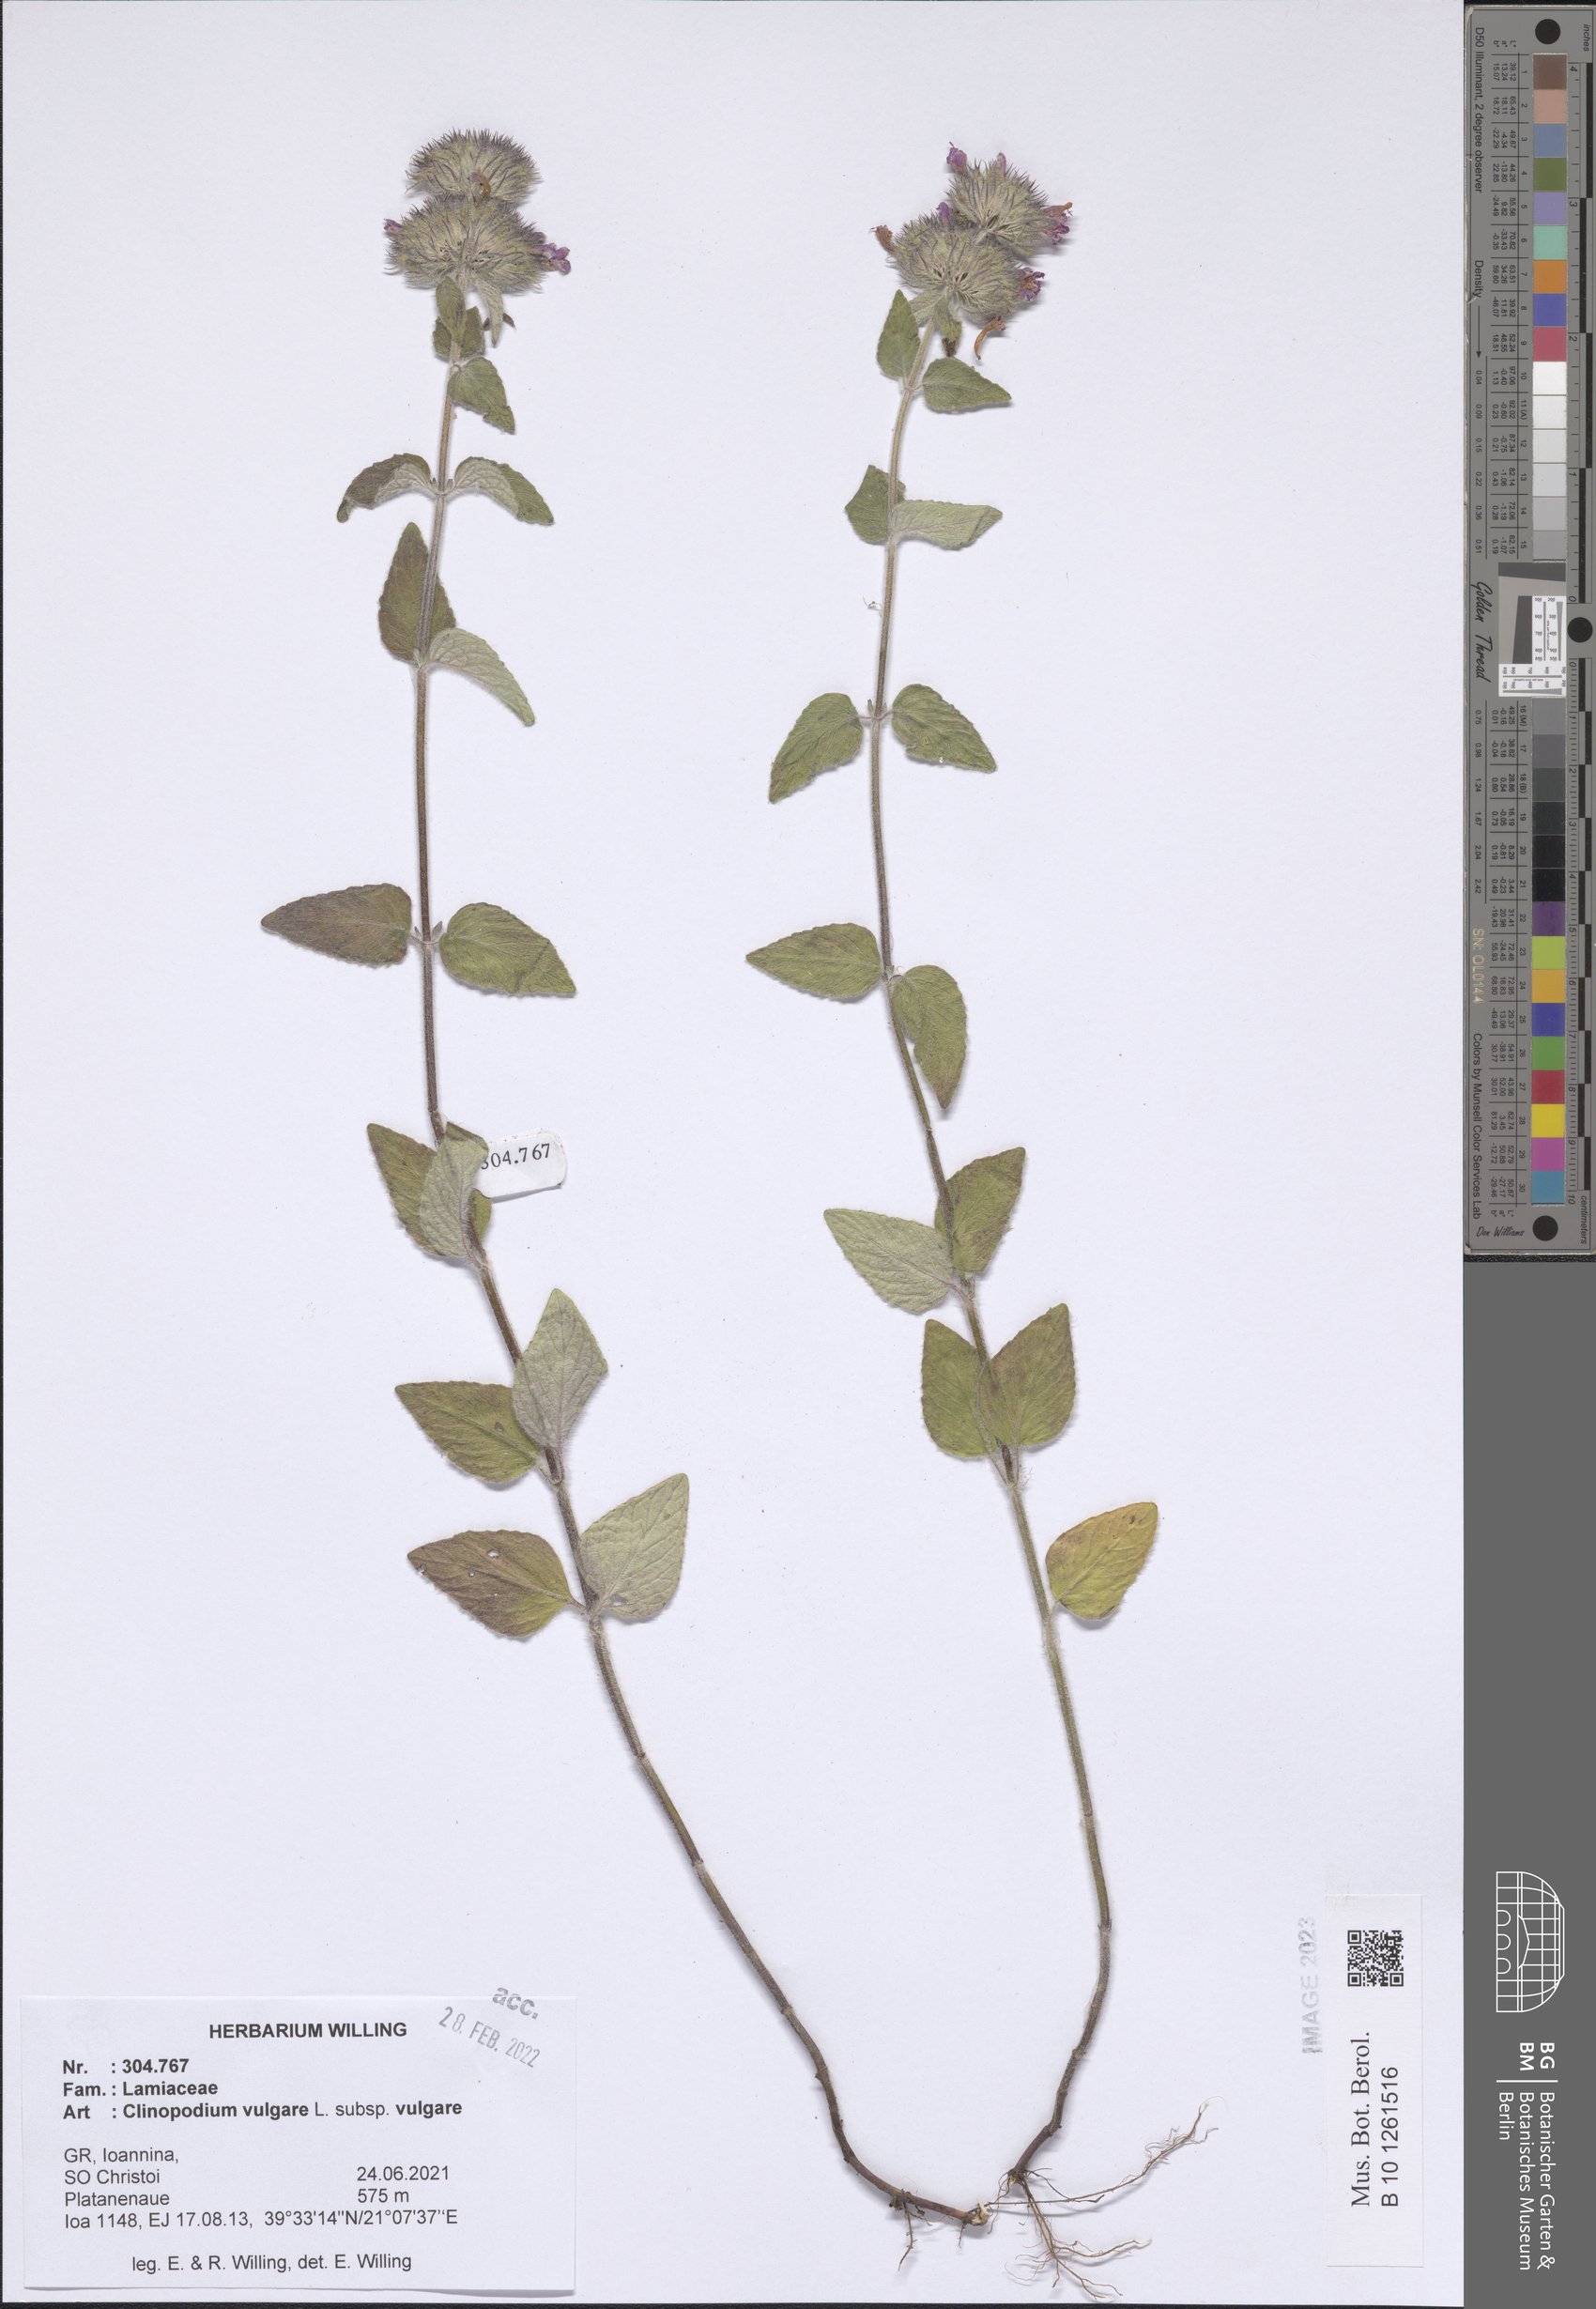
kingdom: Plantae
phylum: Tracheophyta
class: Magnoliopsida
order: Lamiales
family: Lamiaceae
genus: Clinopodium
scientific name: Clinopodium vulgare
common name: Wild basil
